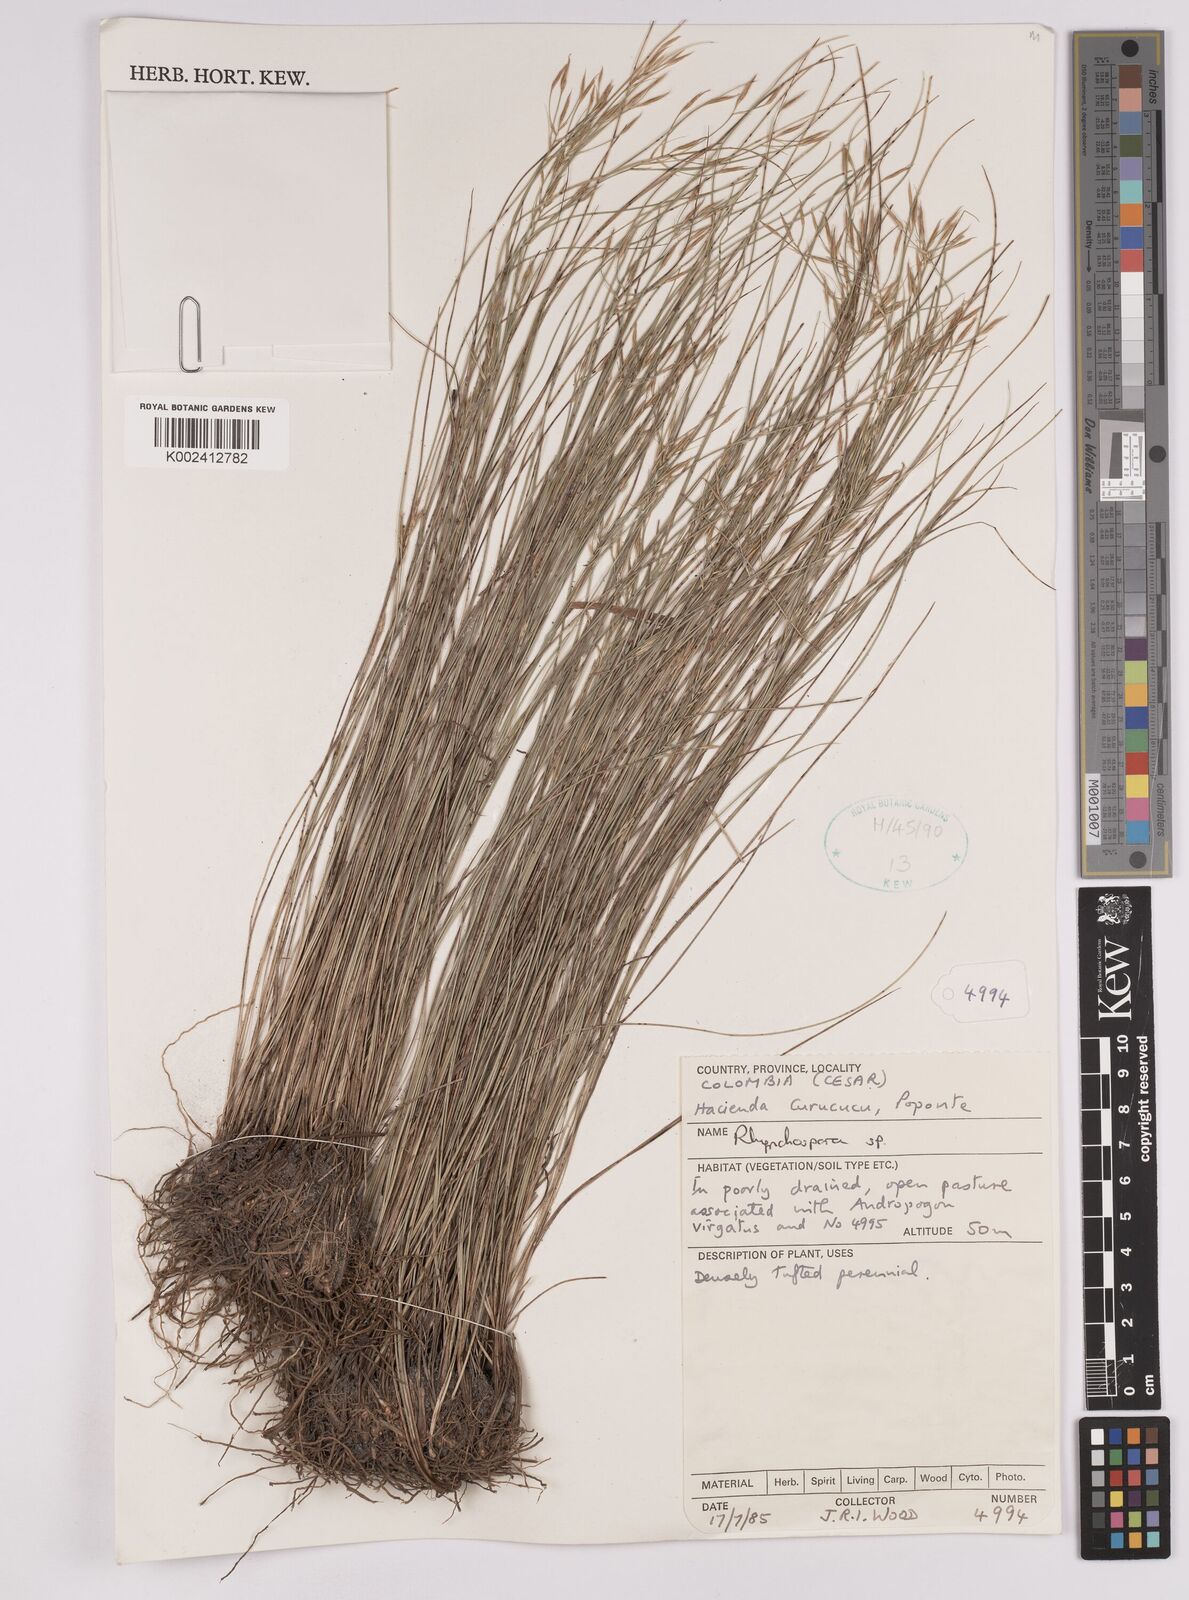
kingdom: Plantae
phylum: Tracheophyta
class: Liliopsida
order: Poales
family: Cyperaceae
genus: Rhynchospora
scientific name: Rhynchospora
